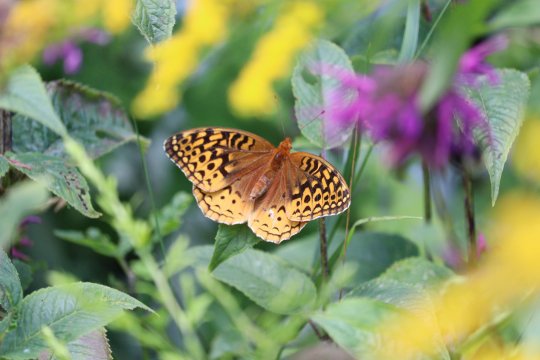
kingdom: Animalia
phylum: Arthropoda
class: Insecta
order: Lepidoptera
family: Nymphalidae
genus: Speyeria
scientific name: Speyeria aphrodite
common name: Aphrodite Fritillary
